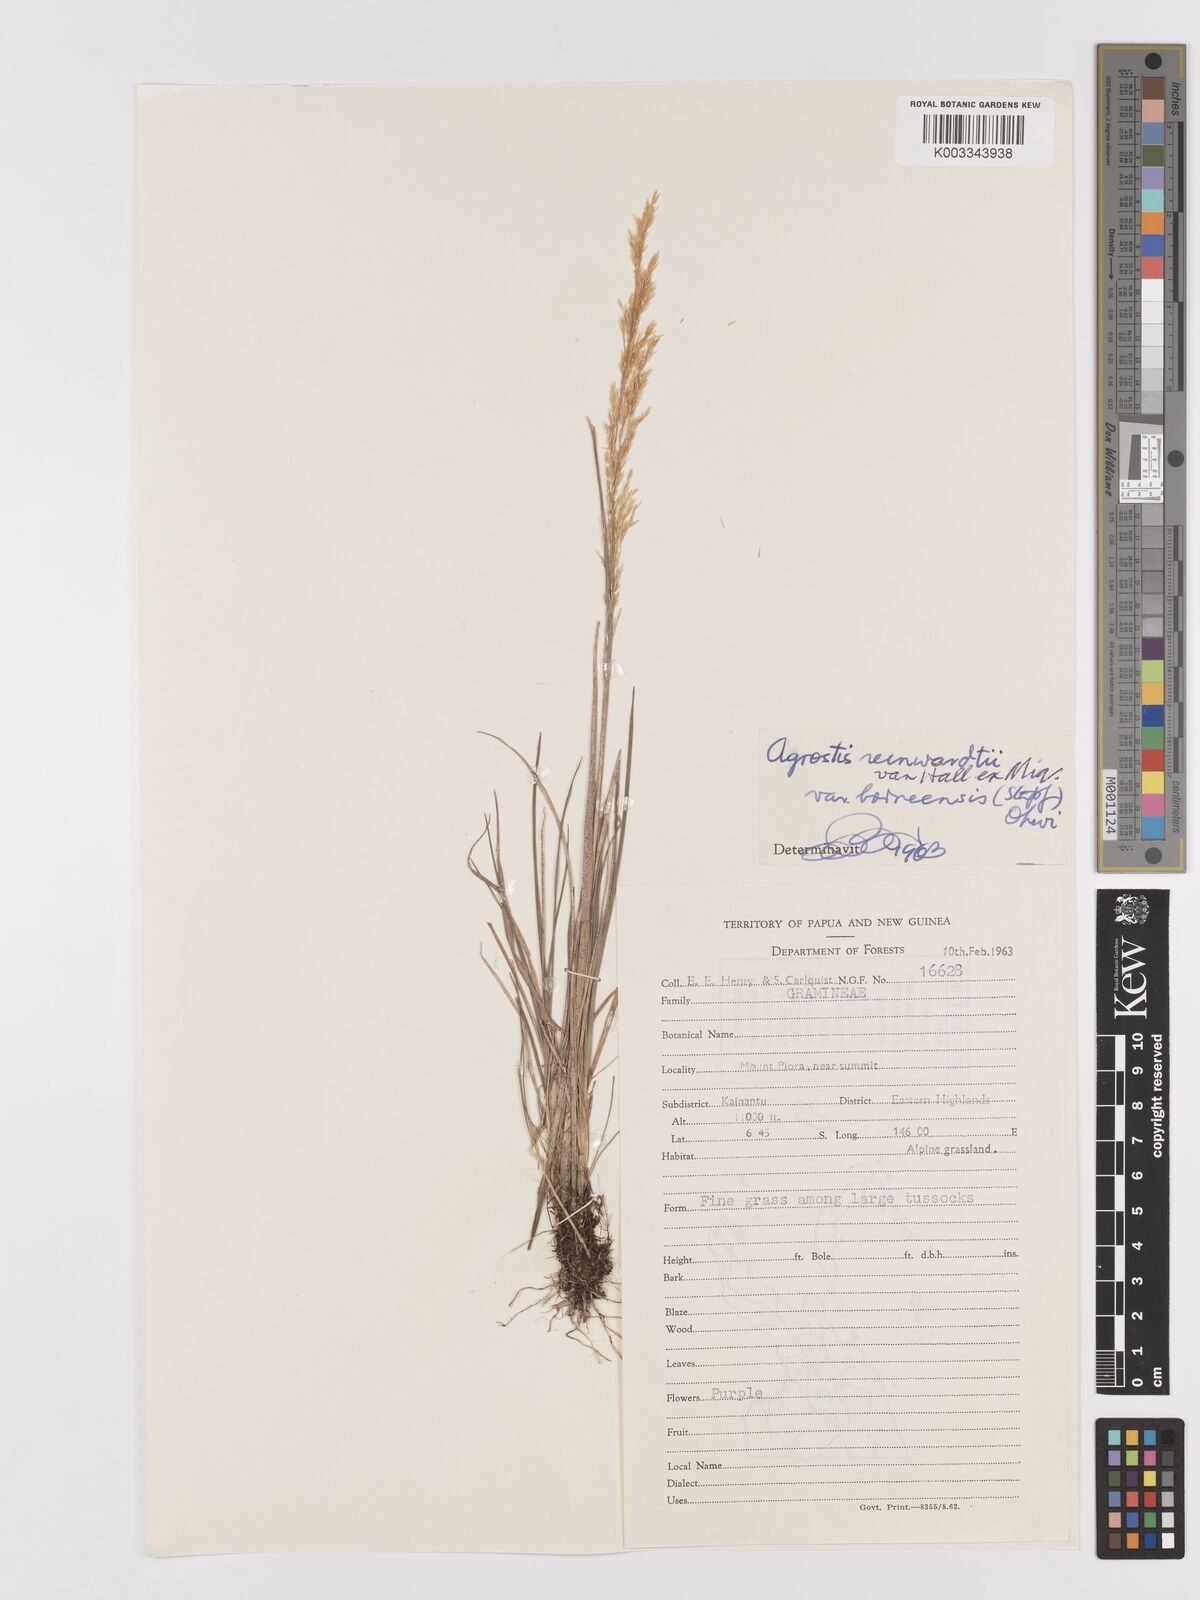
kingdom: Plantae
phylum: Tracheophyta
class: Liliopsida
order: Poales
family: Poaceae
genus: Agrostis
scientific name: Agrostis infirma
